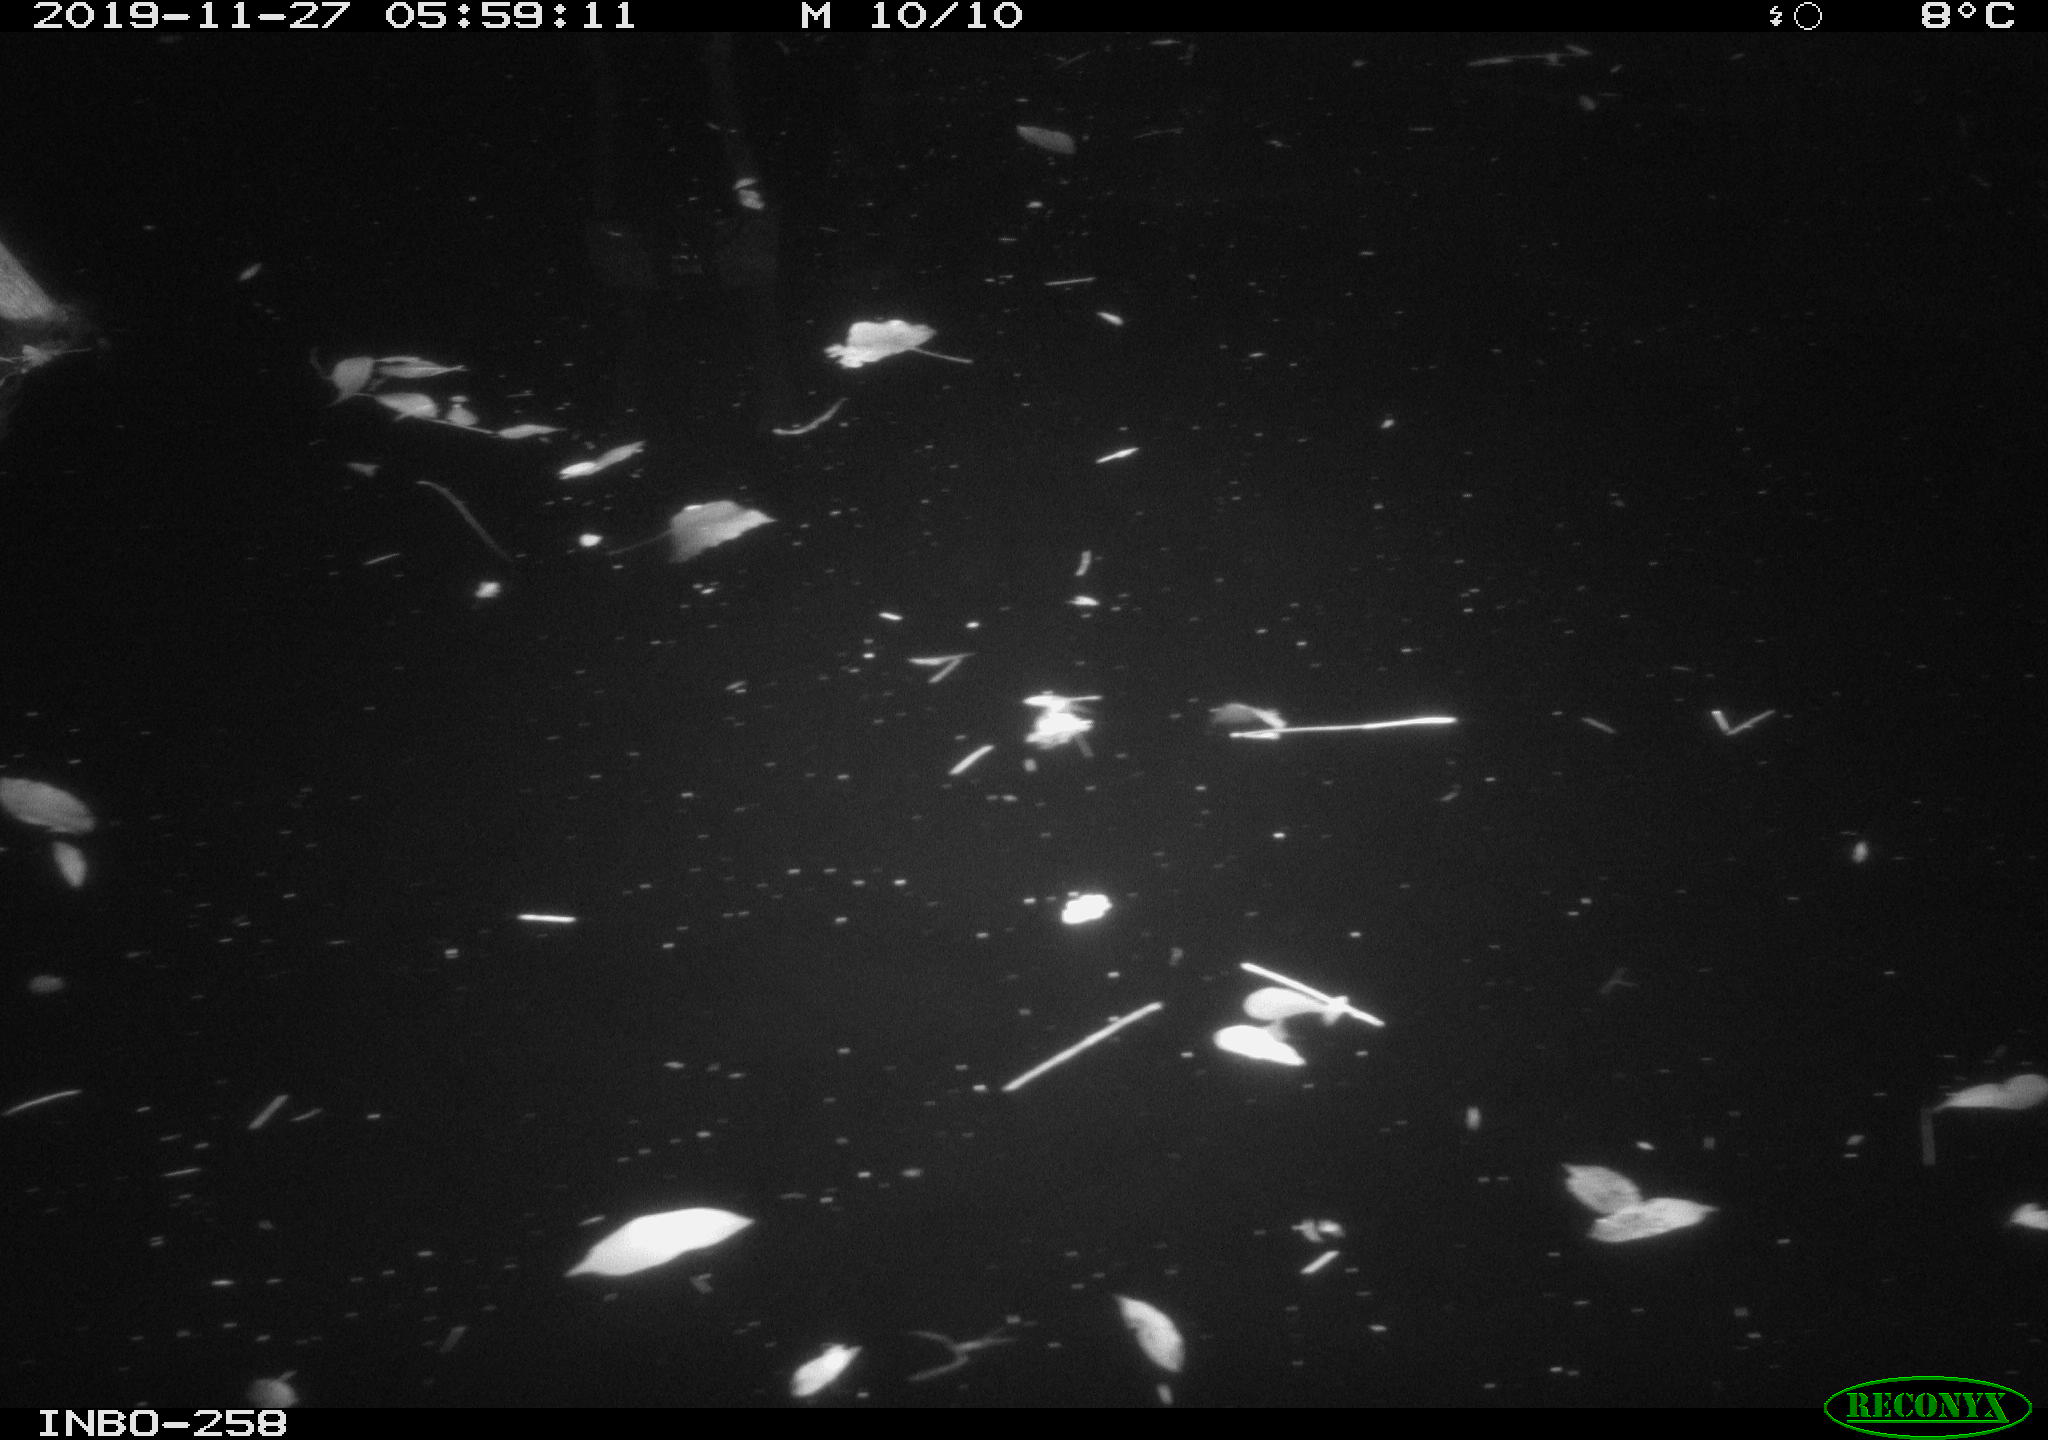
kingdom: Animalia
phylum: Chordata
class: Aves
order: Anseriformes
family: Anatidae
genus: Anas
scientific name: Anas platyrhynchos
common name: Mallard
